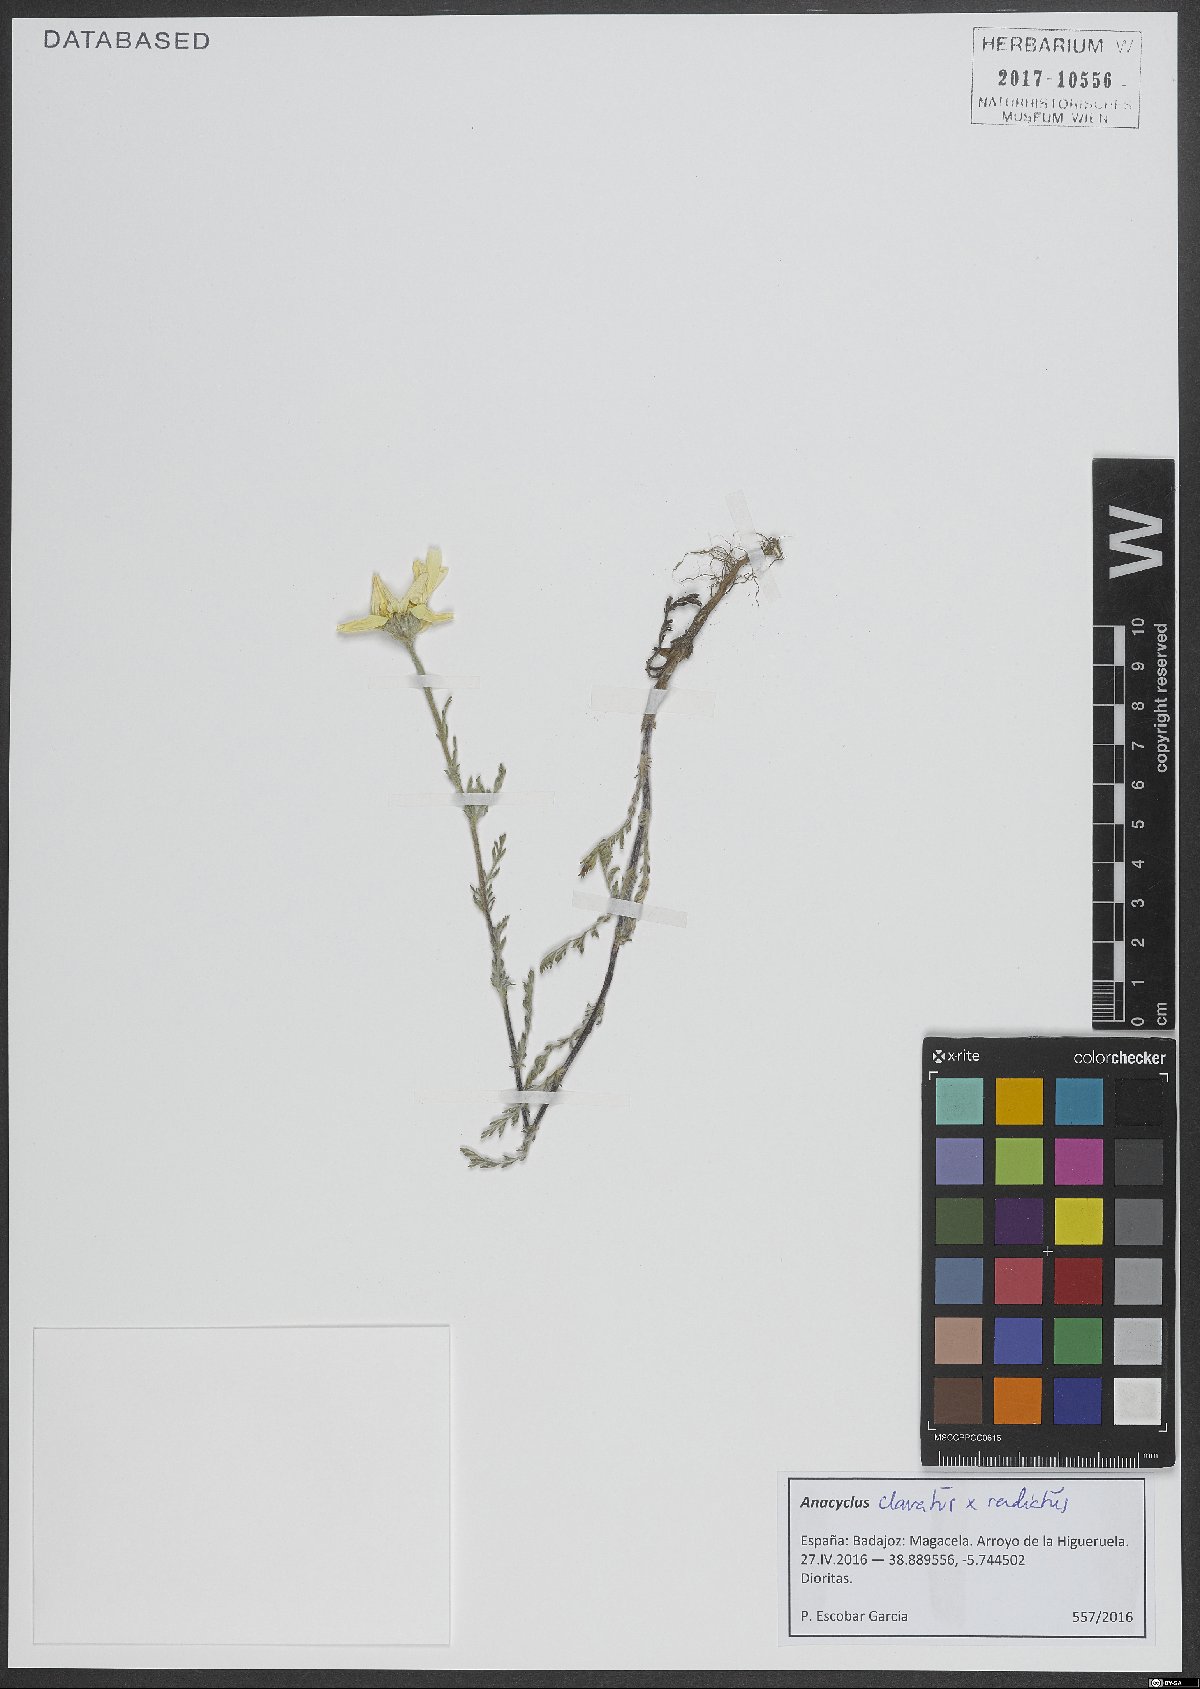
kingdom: Plantae
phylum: Tracheophyta
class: Magnoliopsida
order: Asterales
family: Asteraceae
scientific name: Asteraceae
